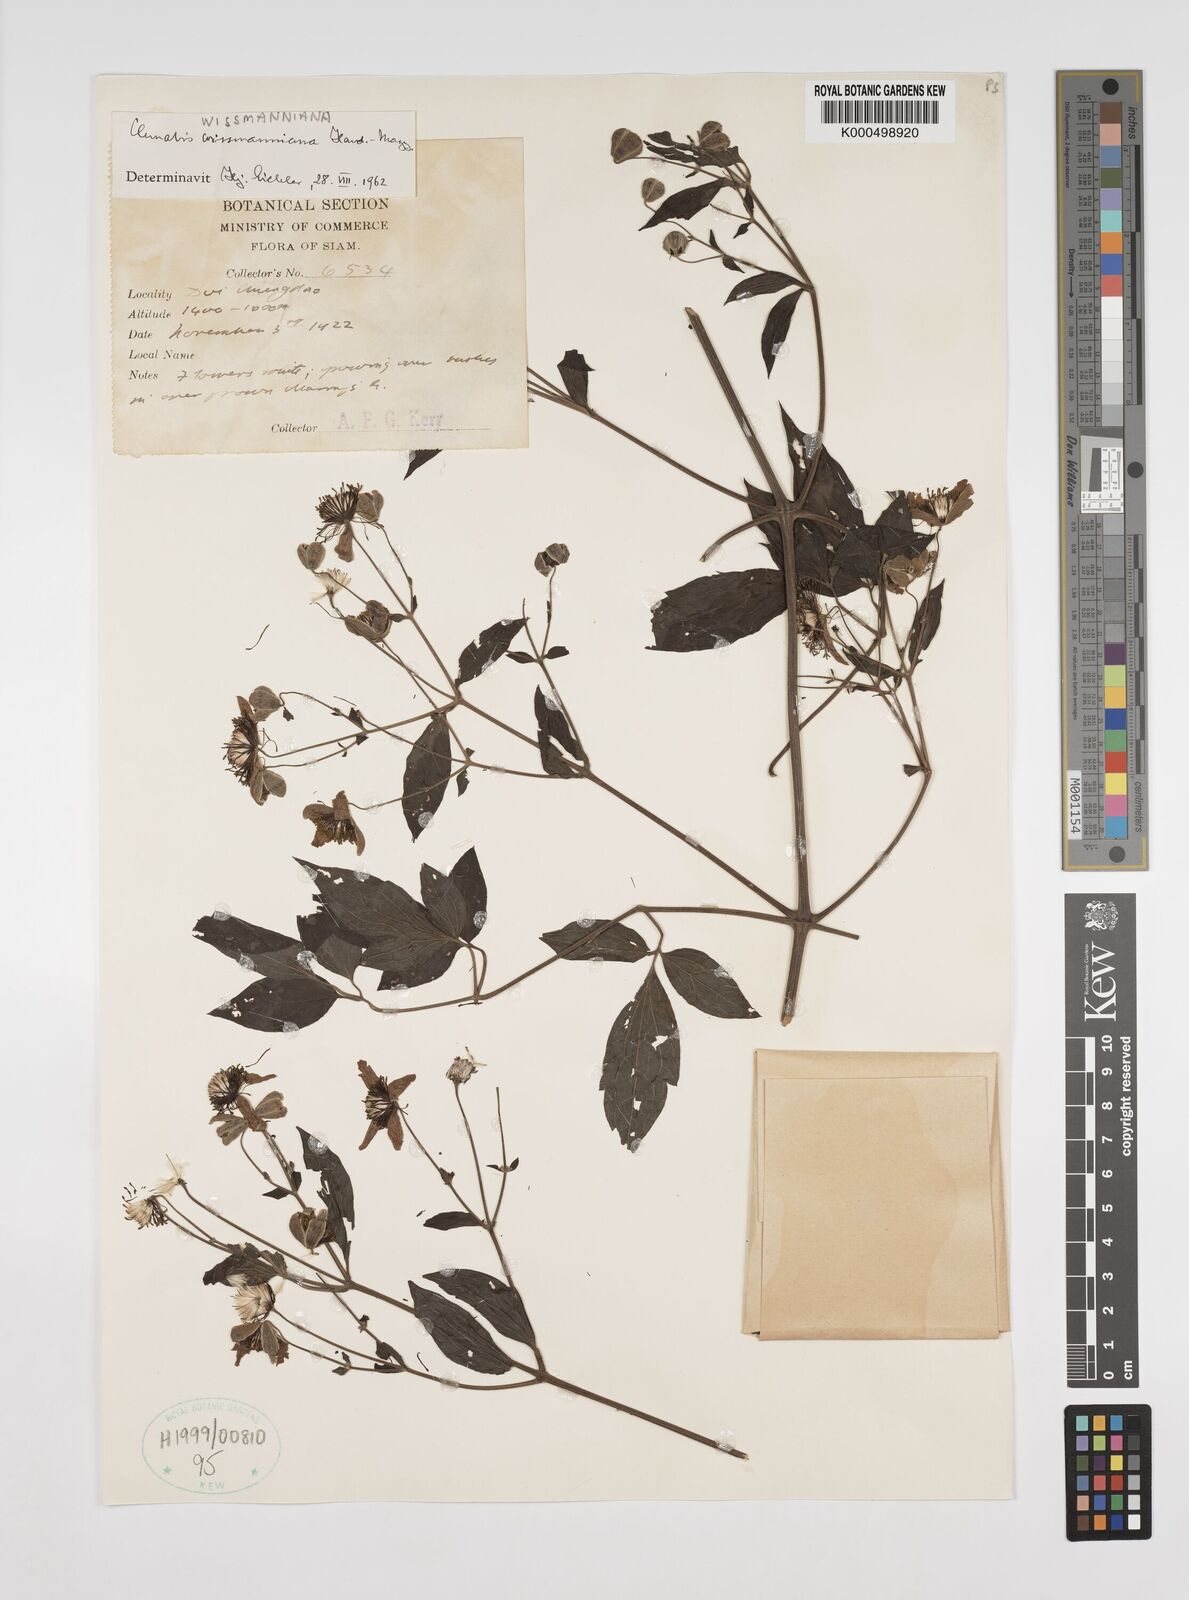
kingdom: Plantae
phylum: Tracheophyta
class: Magnoliopsida
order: Ranunculales
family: Ranunculaceae
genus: Clematis
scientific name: Clematis wissmanniana
